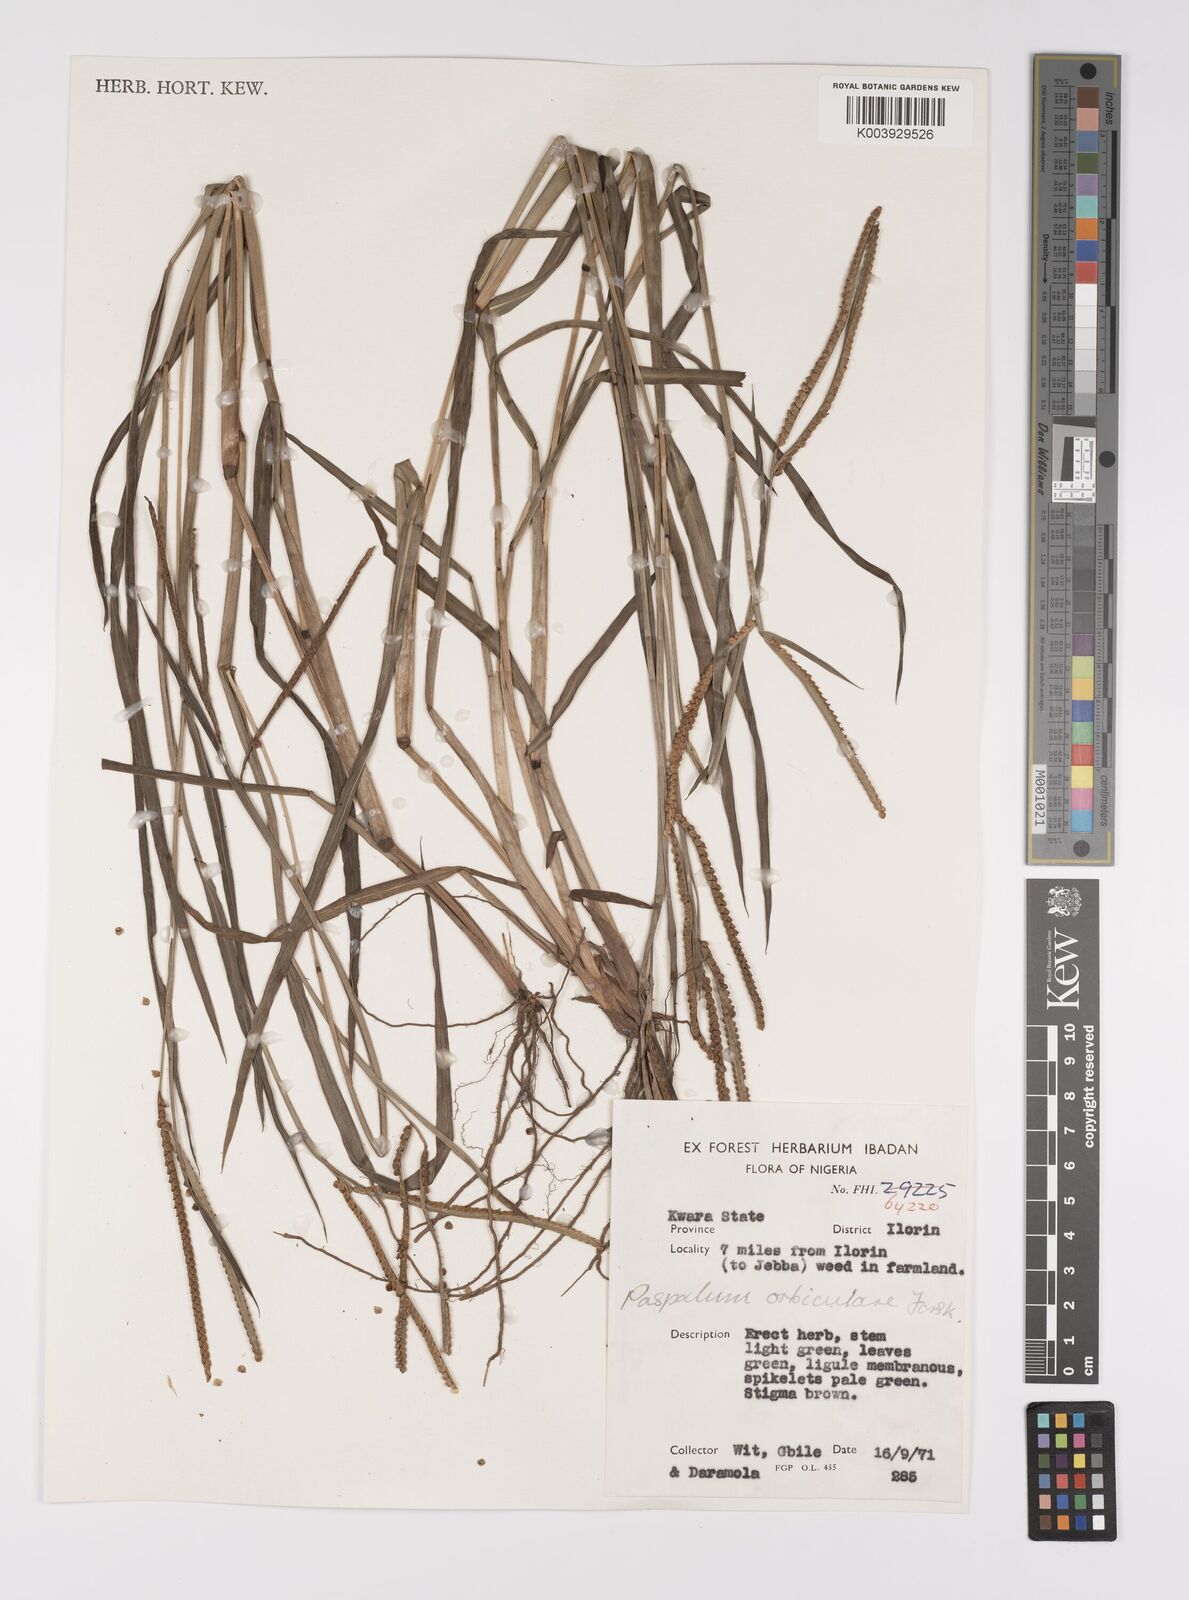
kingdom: Plantae
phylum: Tracheophyta
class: Liliopsida
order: Poales
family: Poaceae
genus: Paspalum
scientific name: Paspalum scrobiculatum
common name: Kodo millet
